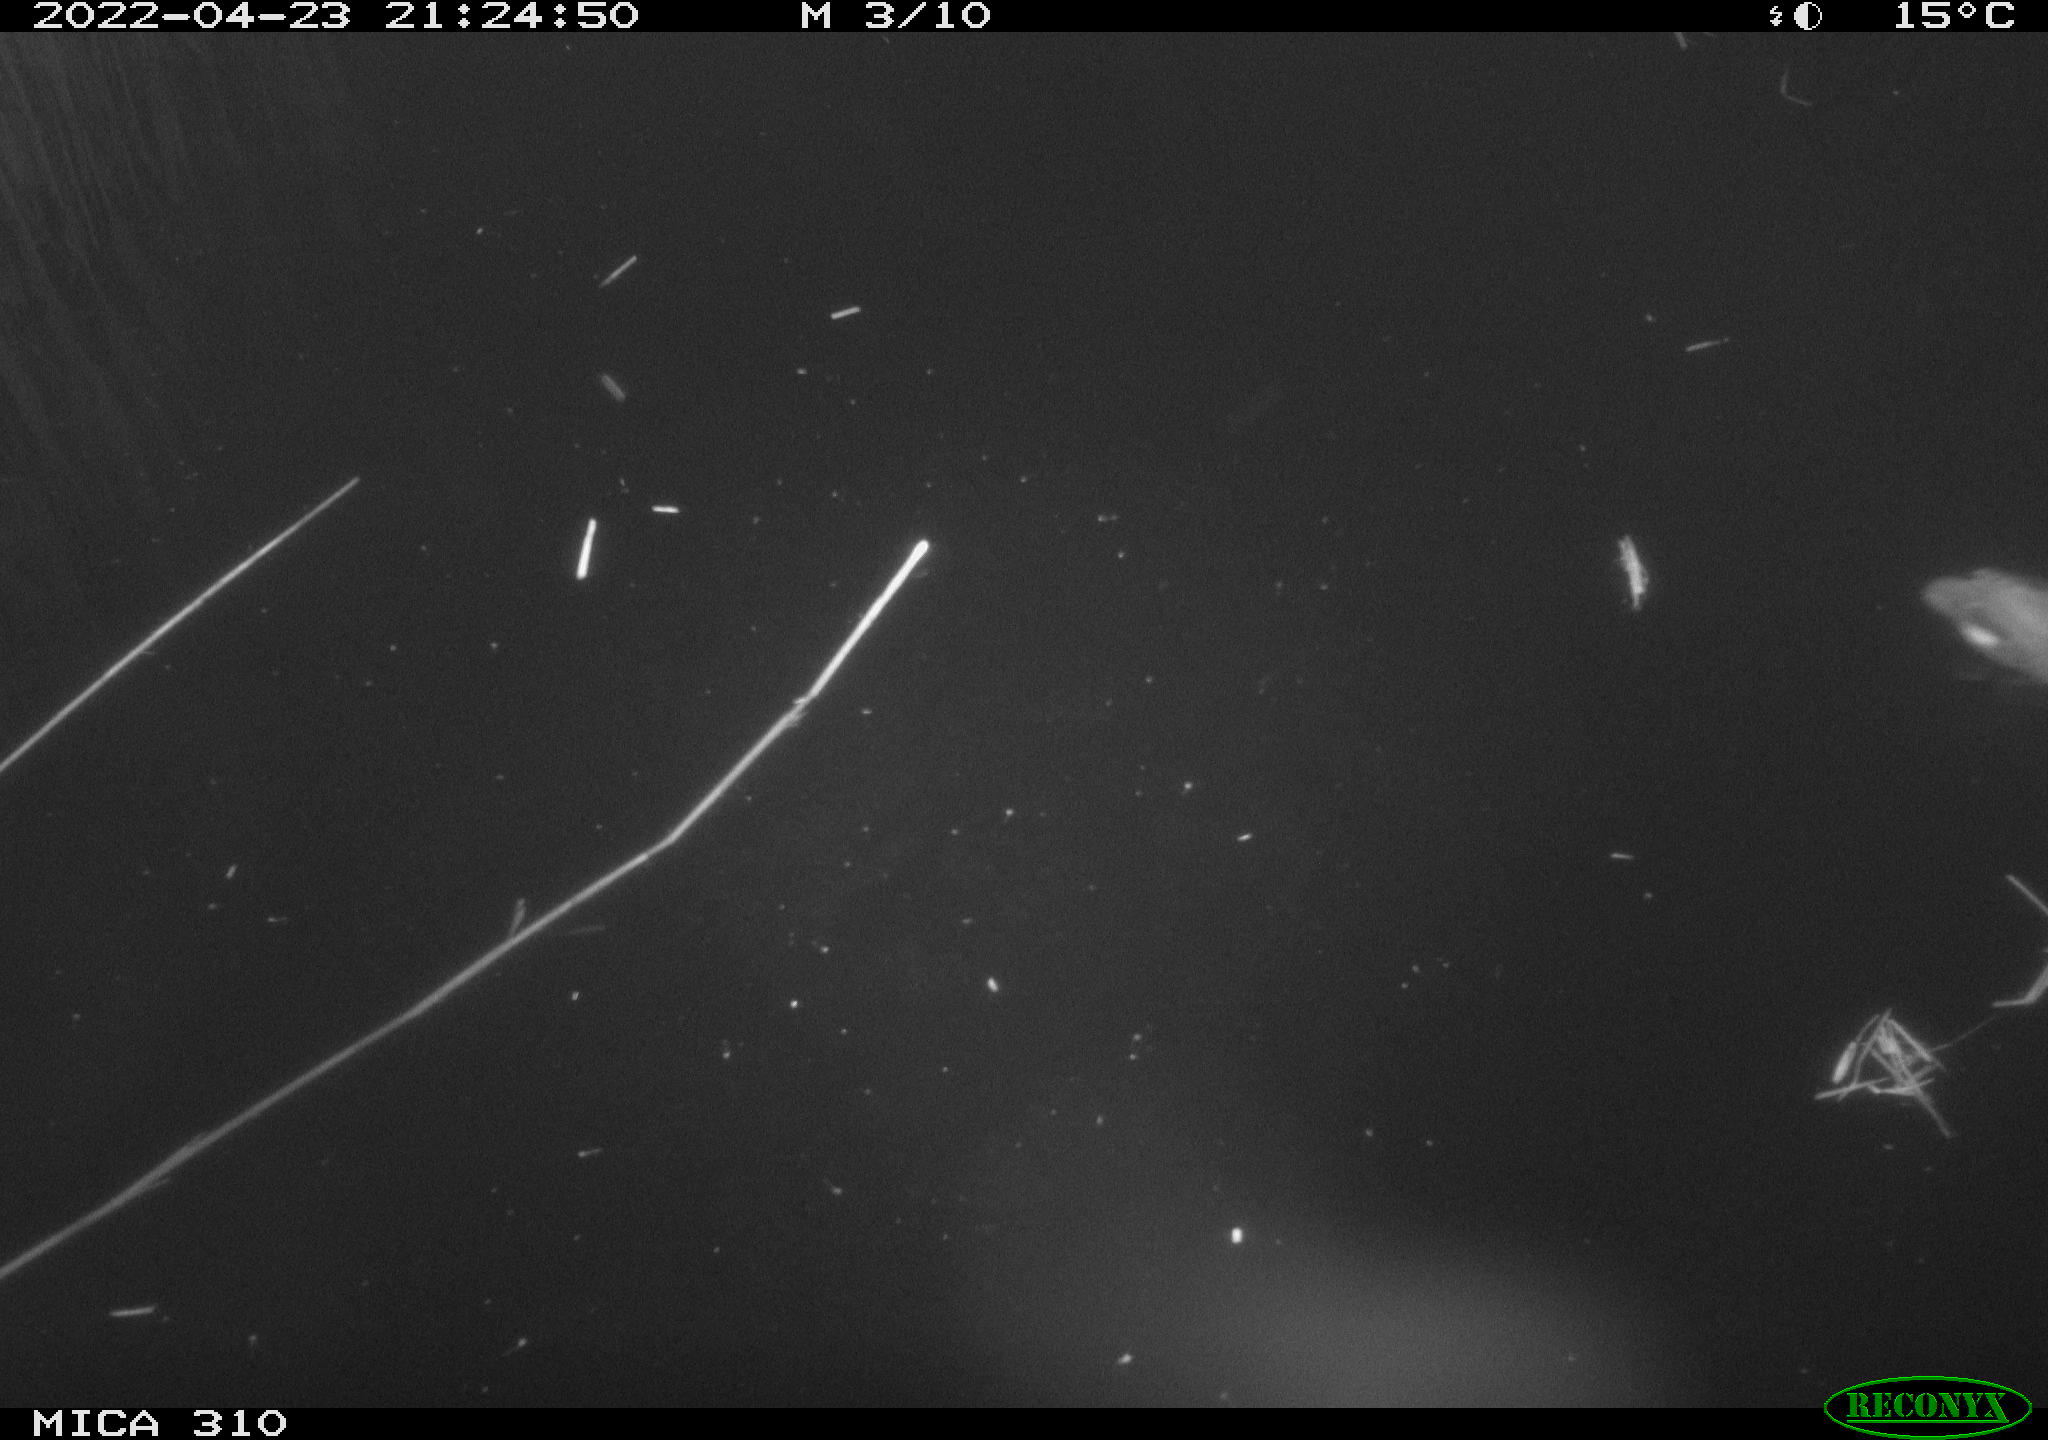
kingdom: Animalia
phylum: Chordata
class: Aves
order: Gruiformes
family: Rallidae
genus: Gallinula
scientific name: Gallinula chloropus
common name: Common moorhen
